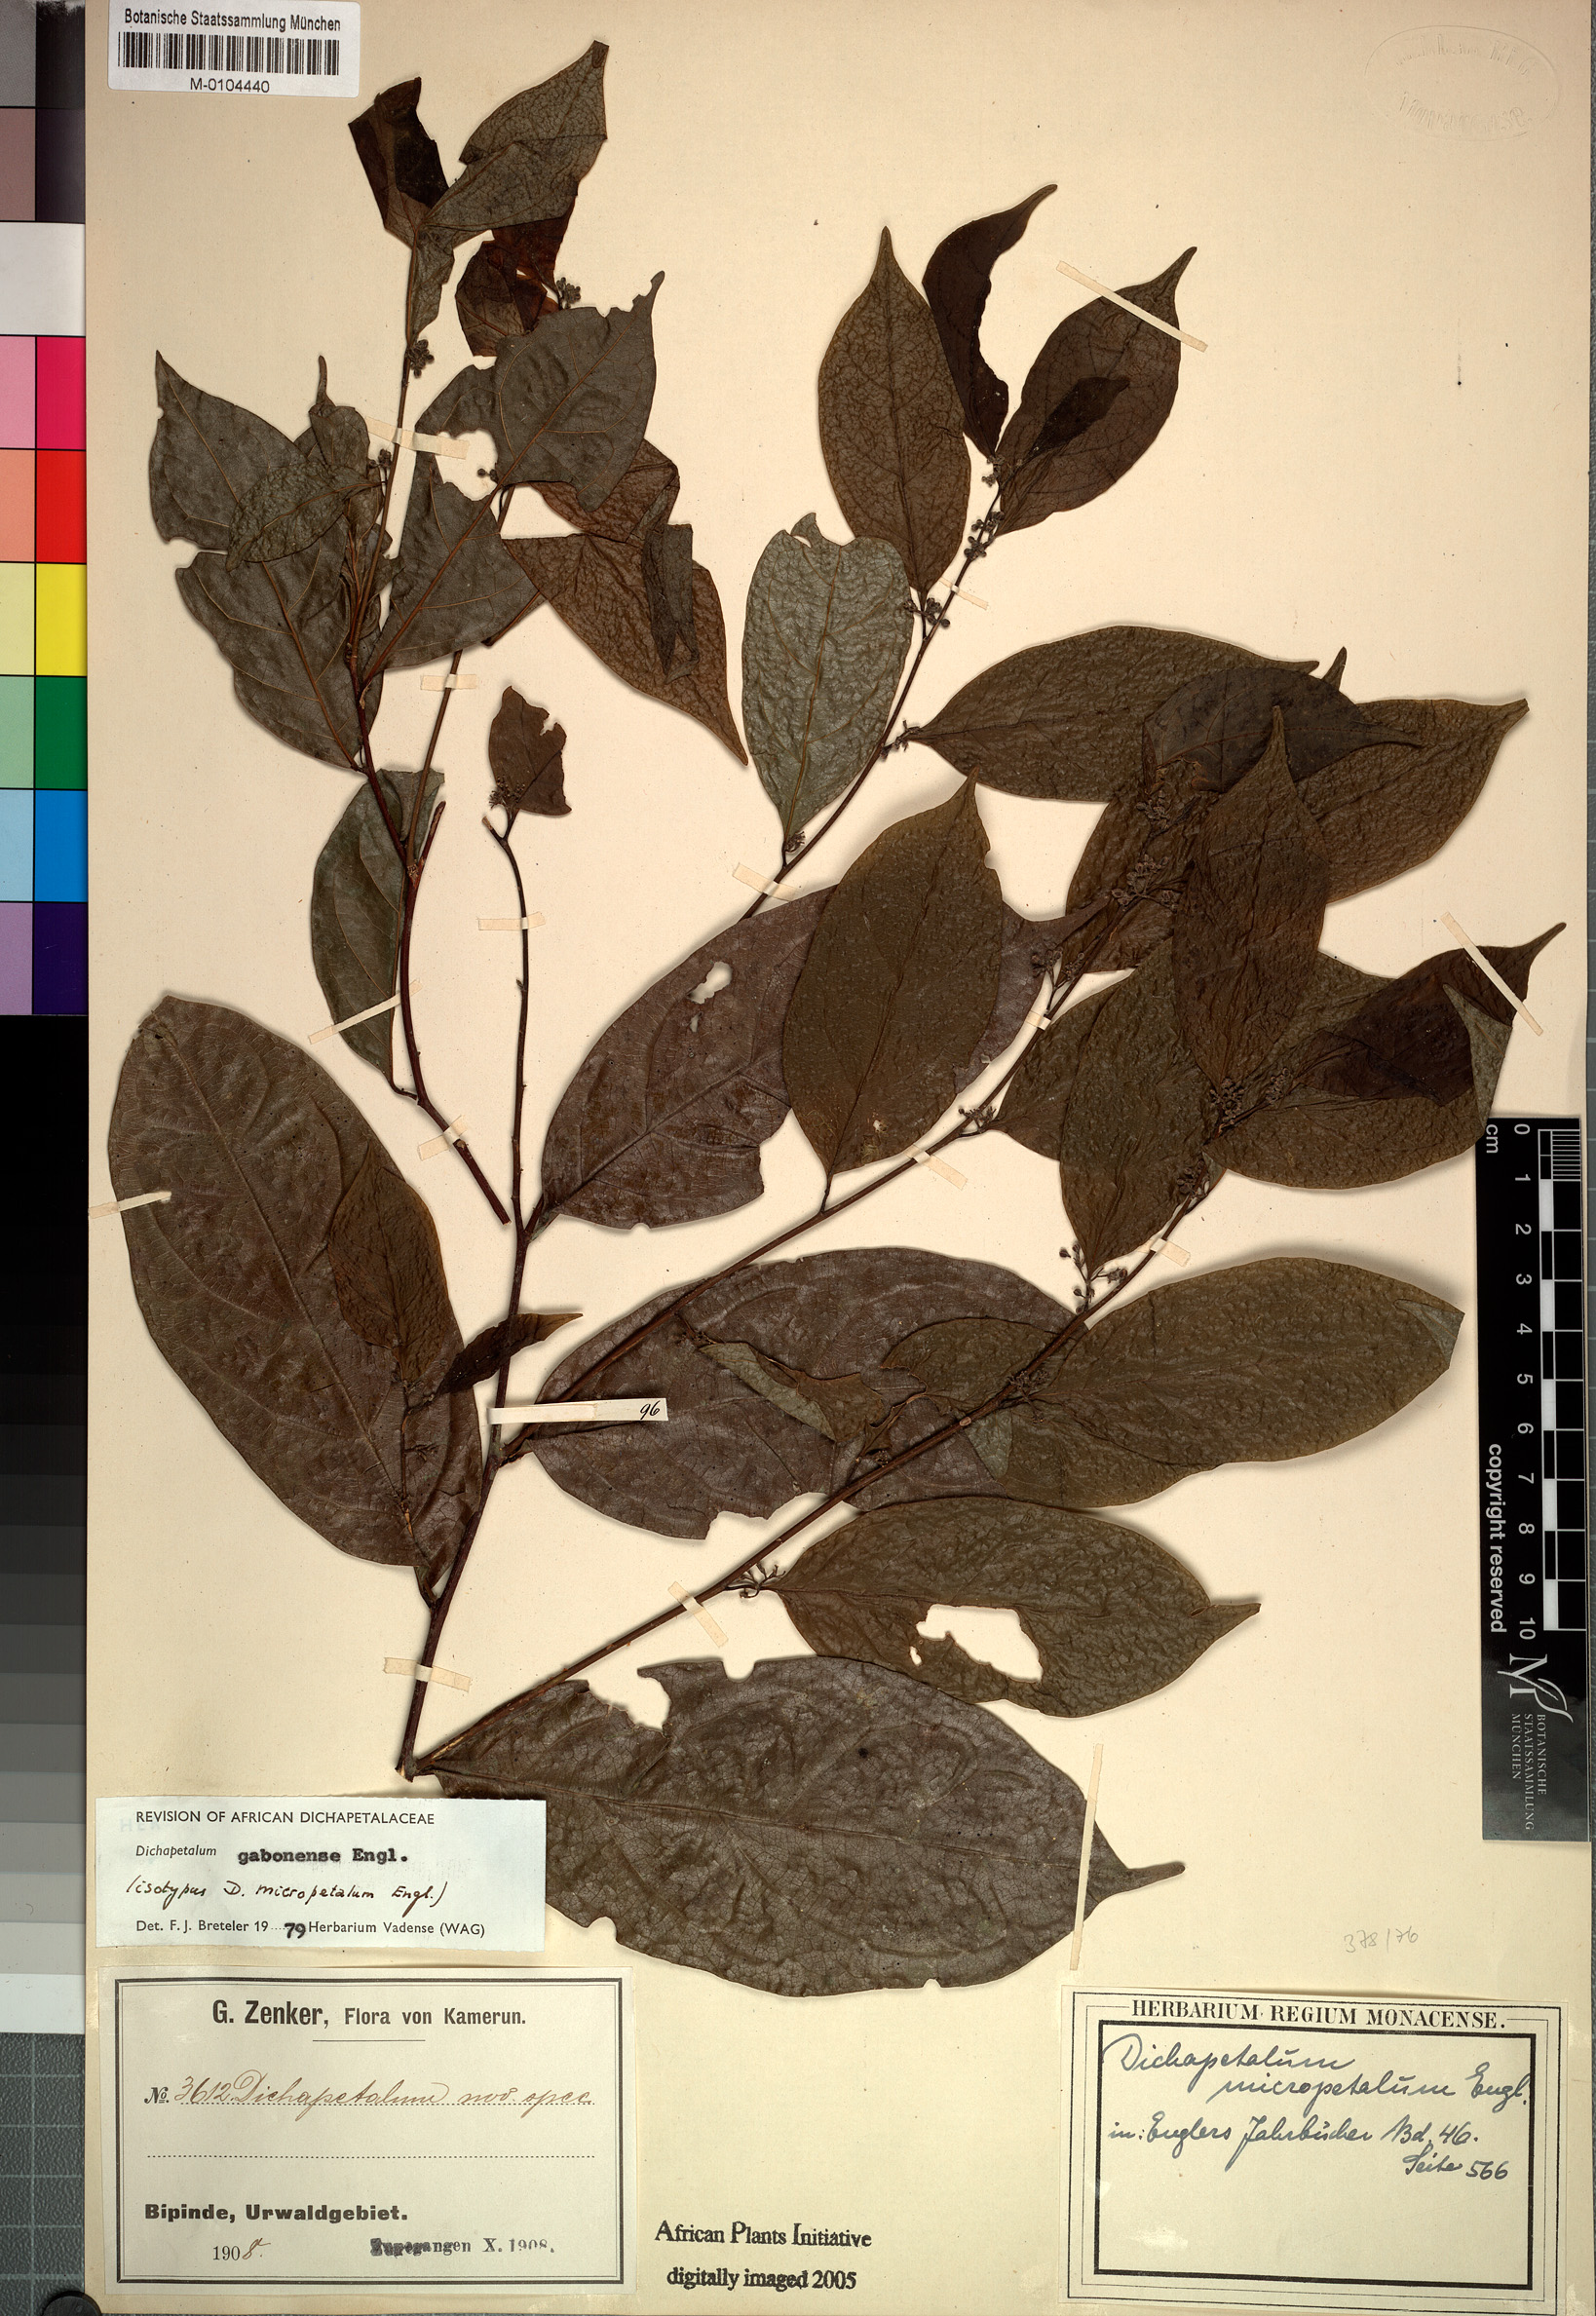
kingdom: Plantae
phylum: Tracheophyta
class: Magnoliopsida
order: Malpighiales
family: Dichapetalaceae
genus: Dichapetalum
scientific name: Dichapetalum gabonense
